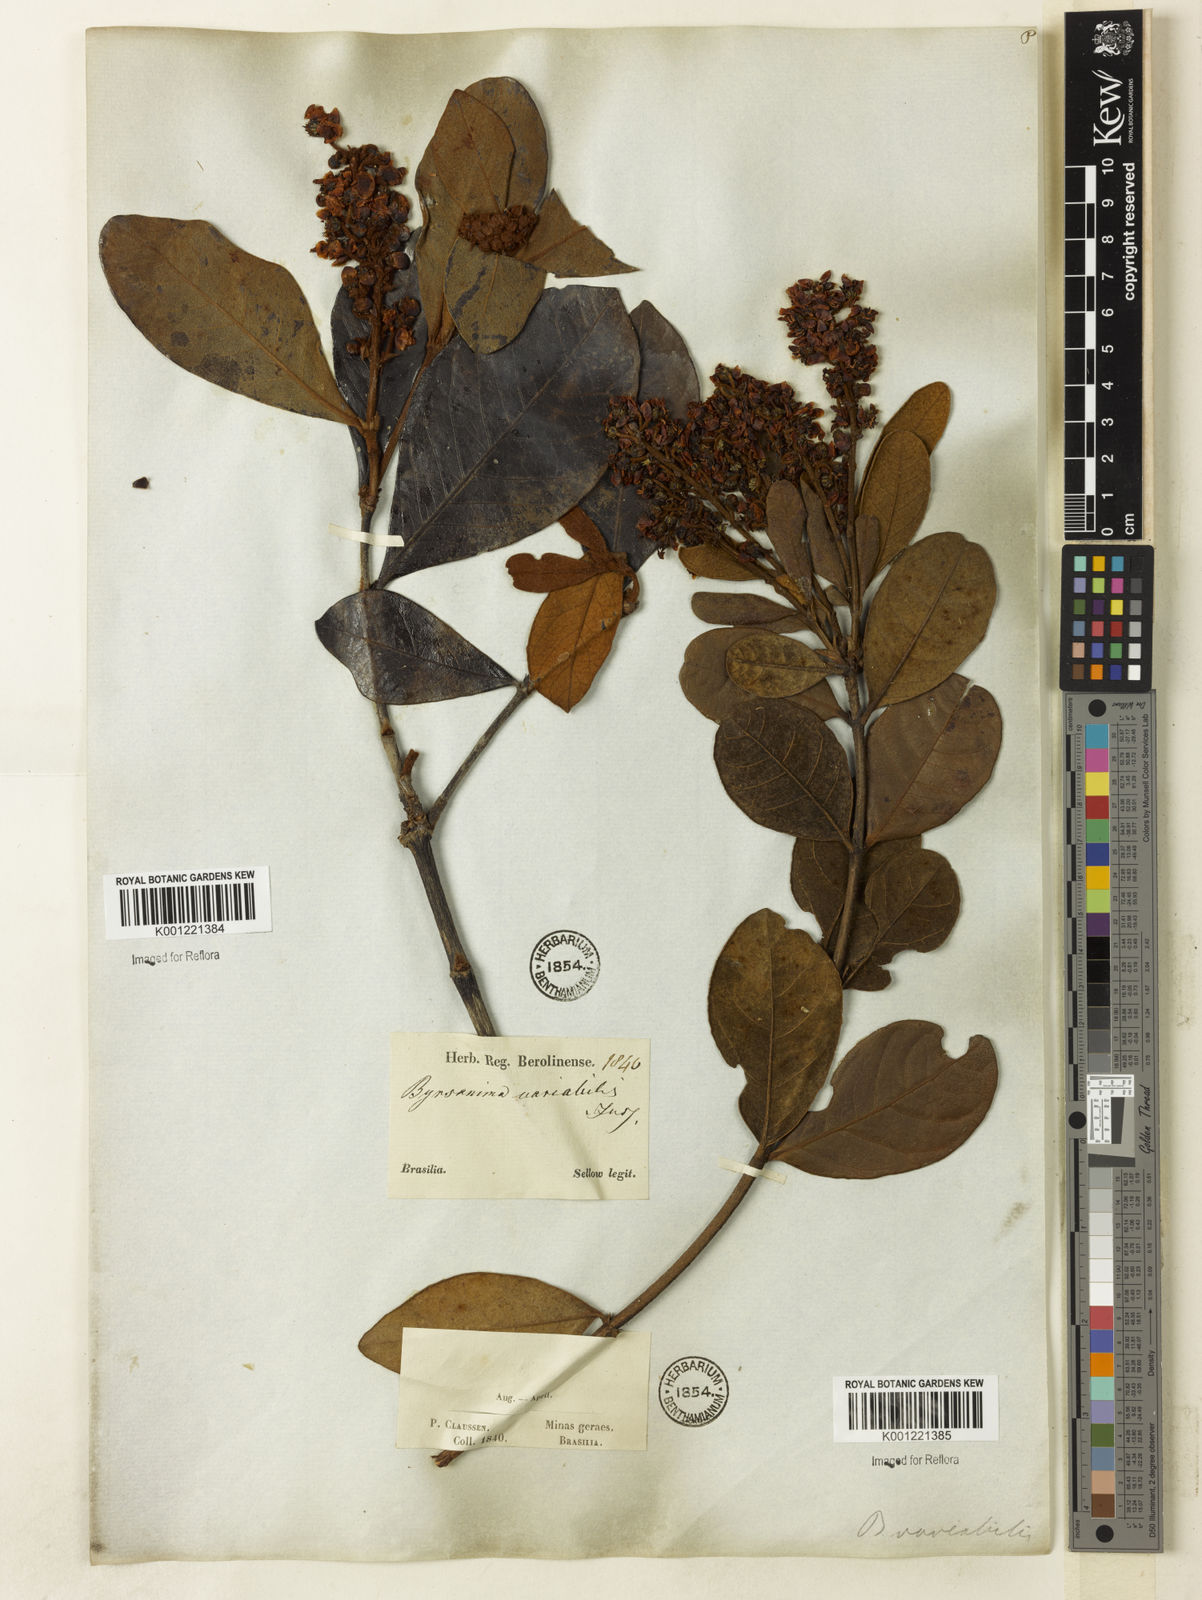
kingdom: Plantae
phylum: Tracheophyta
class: Magnoliopsida
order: Malpighiales
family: Malpighiaceae
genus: Byrsonima
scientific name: Byrsonima variabilis
